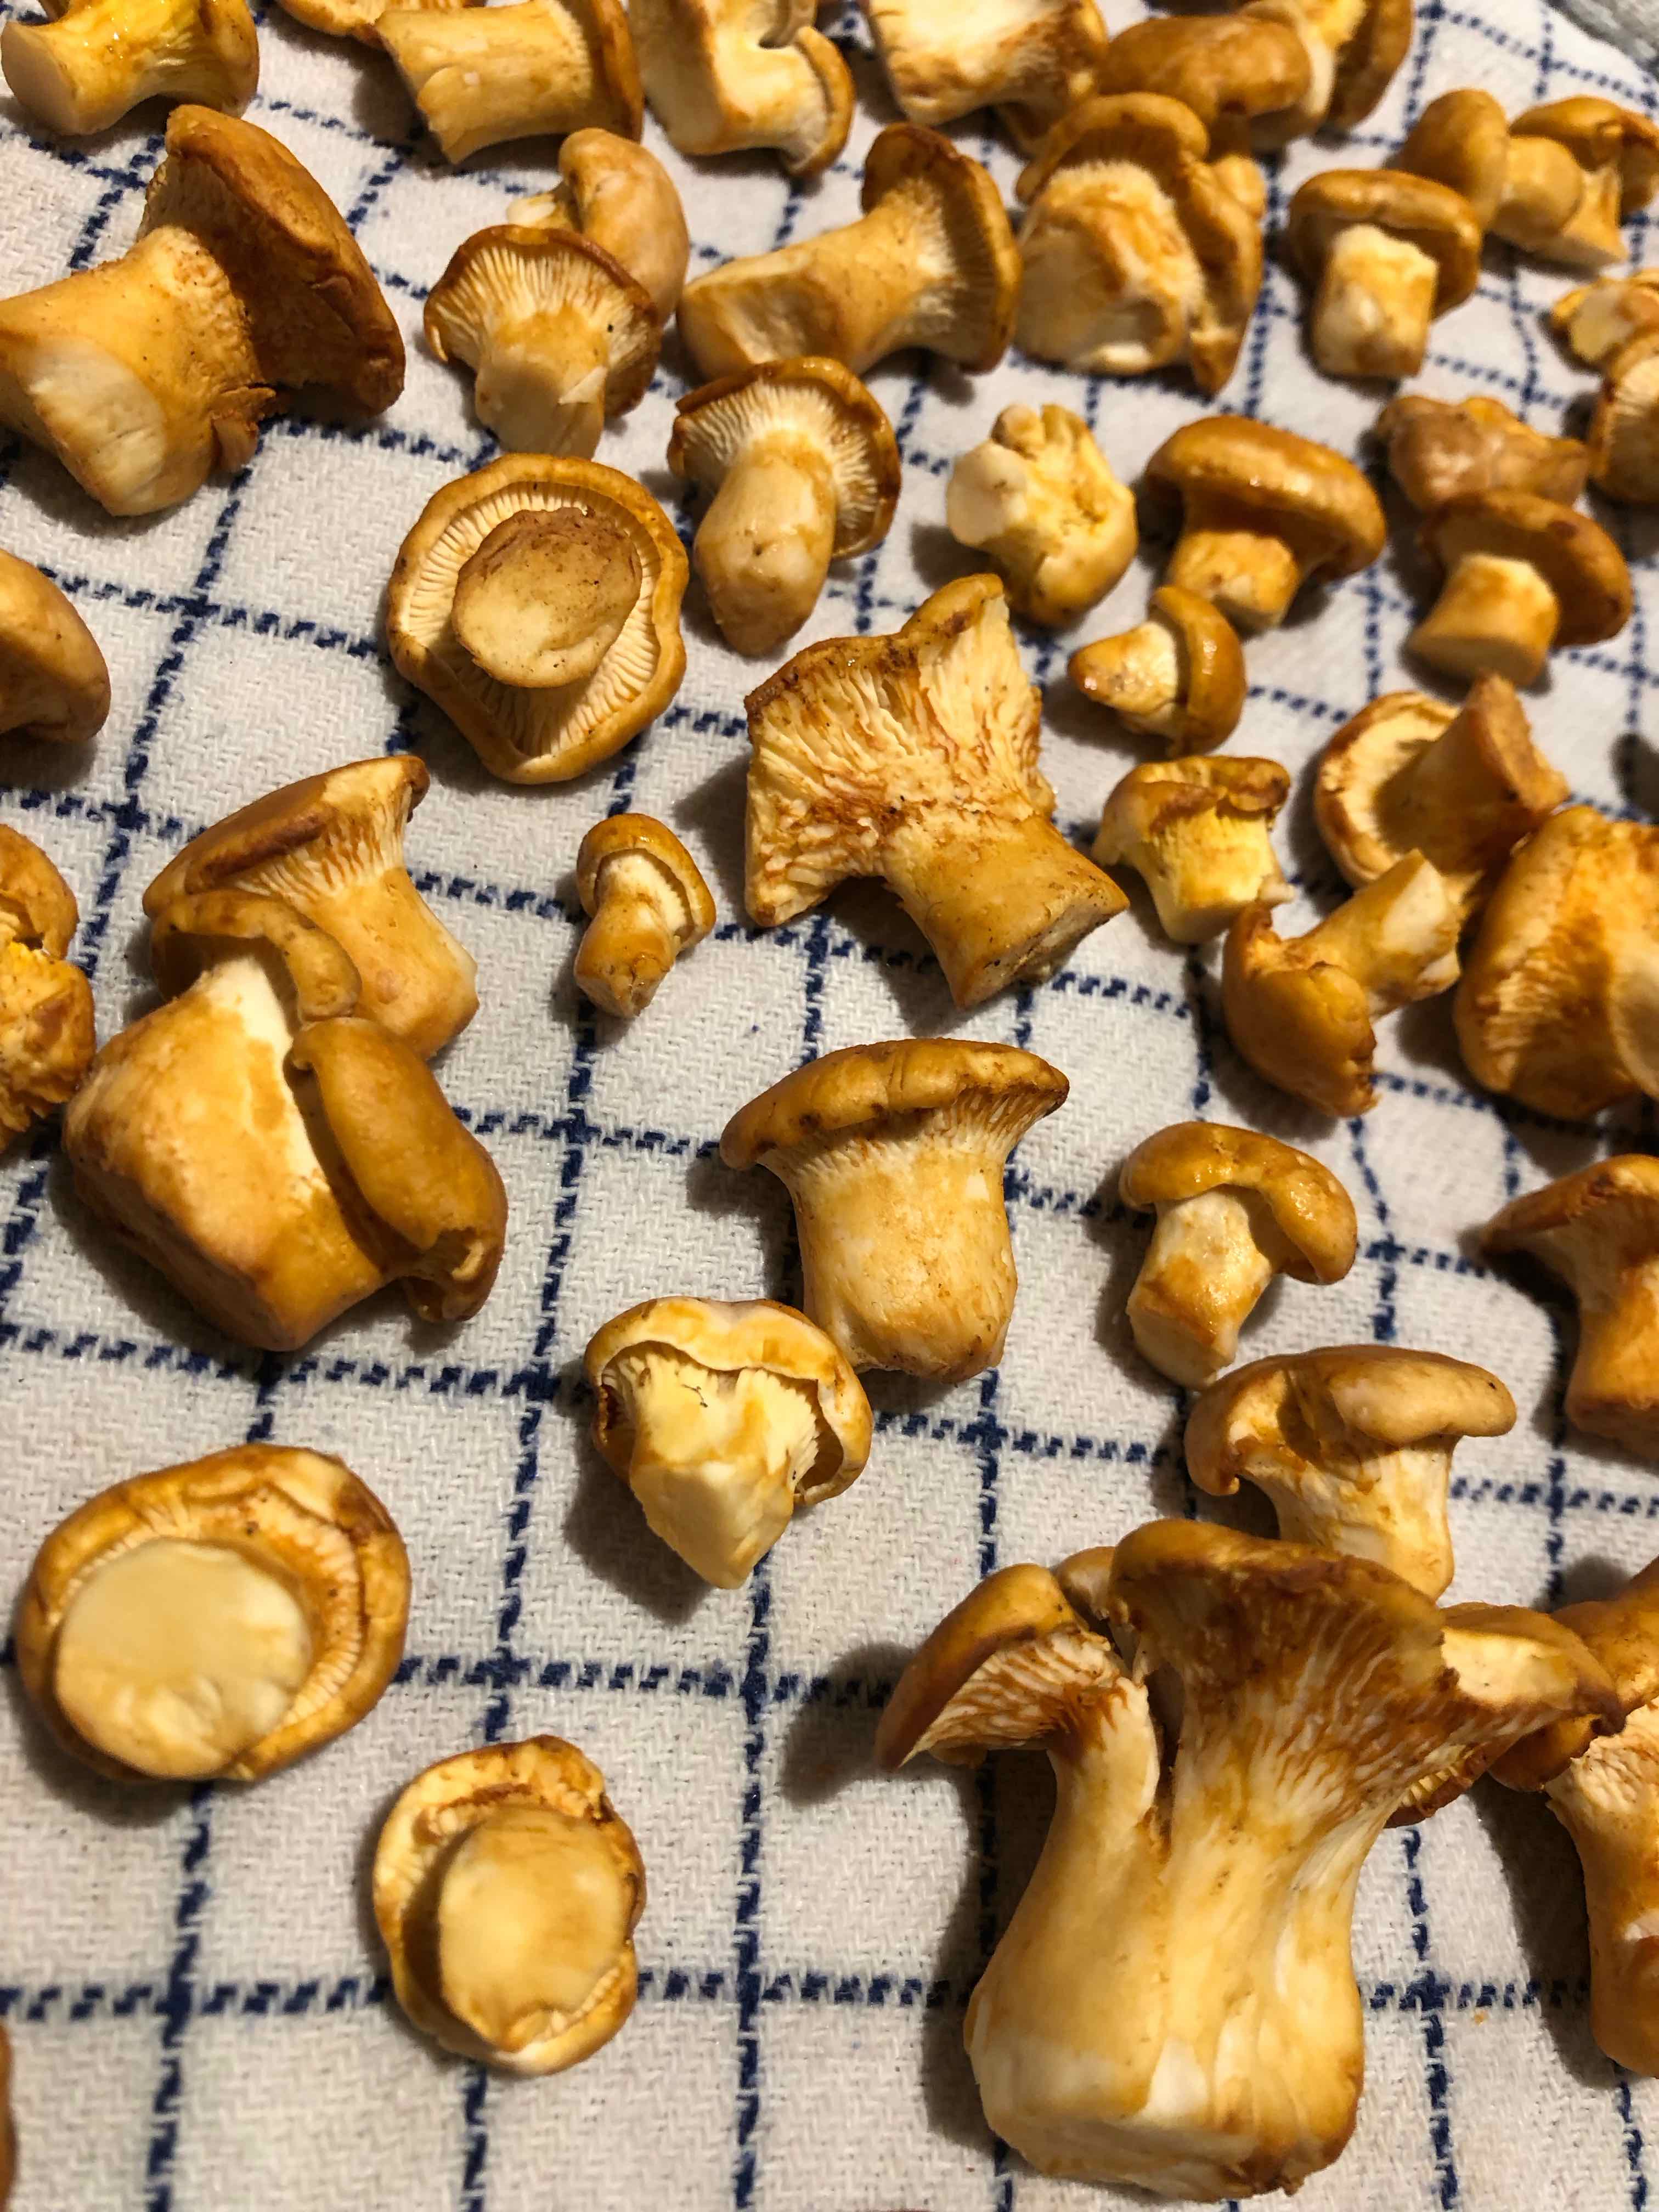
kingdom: Fungi
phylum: Basidiomycota
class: Agaricomycetes
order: Cantharellales
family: Hydnaceae
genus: Cantharellus
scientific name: Cantharellus pallens
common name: bleg kantarel
